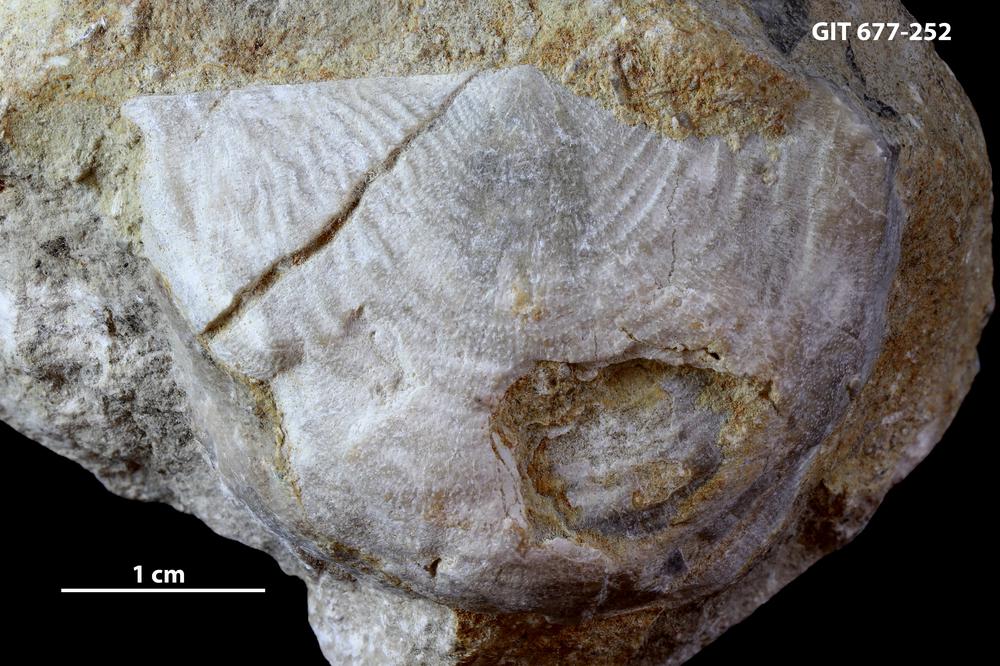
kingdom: Animalia
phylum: Brachiopoda
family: Leptaenidae
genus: Bekkeromena
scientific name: Bekkeromena
